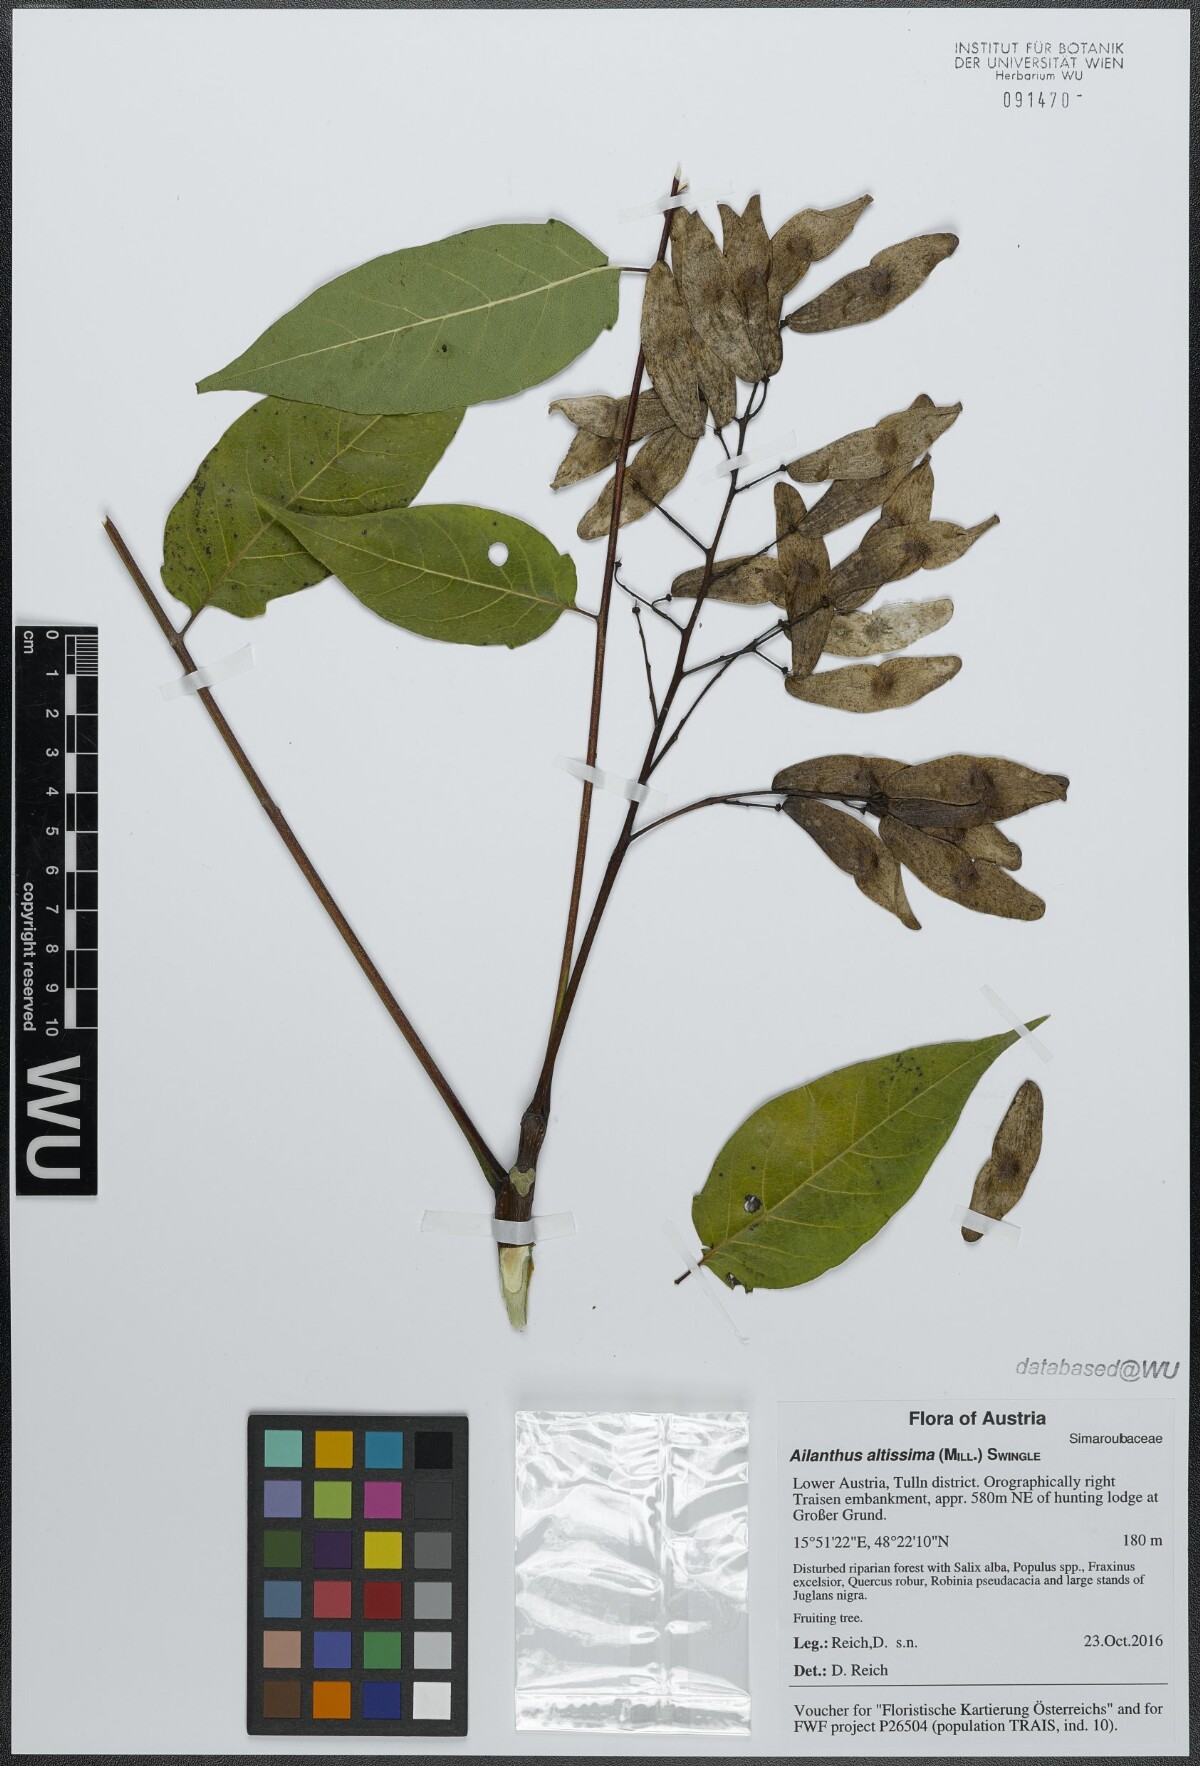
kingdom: Plantae
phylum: Tracheophyta
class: Magnoliopsida
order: Sapindales
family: Simaroubaceae
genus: Ailanthus
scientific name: Ailanthus altissima
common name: Tree-of-heaven
